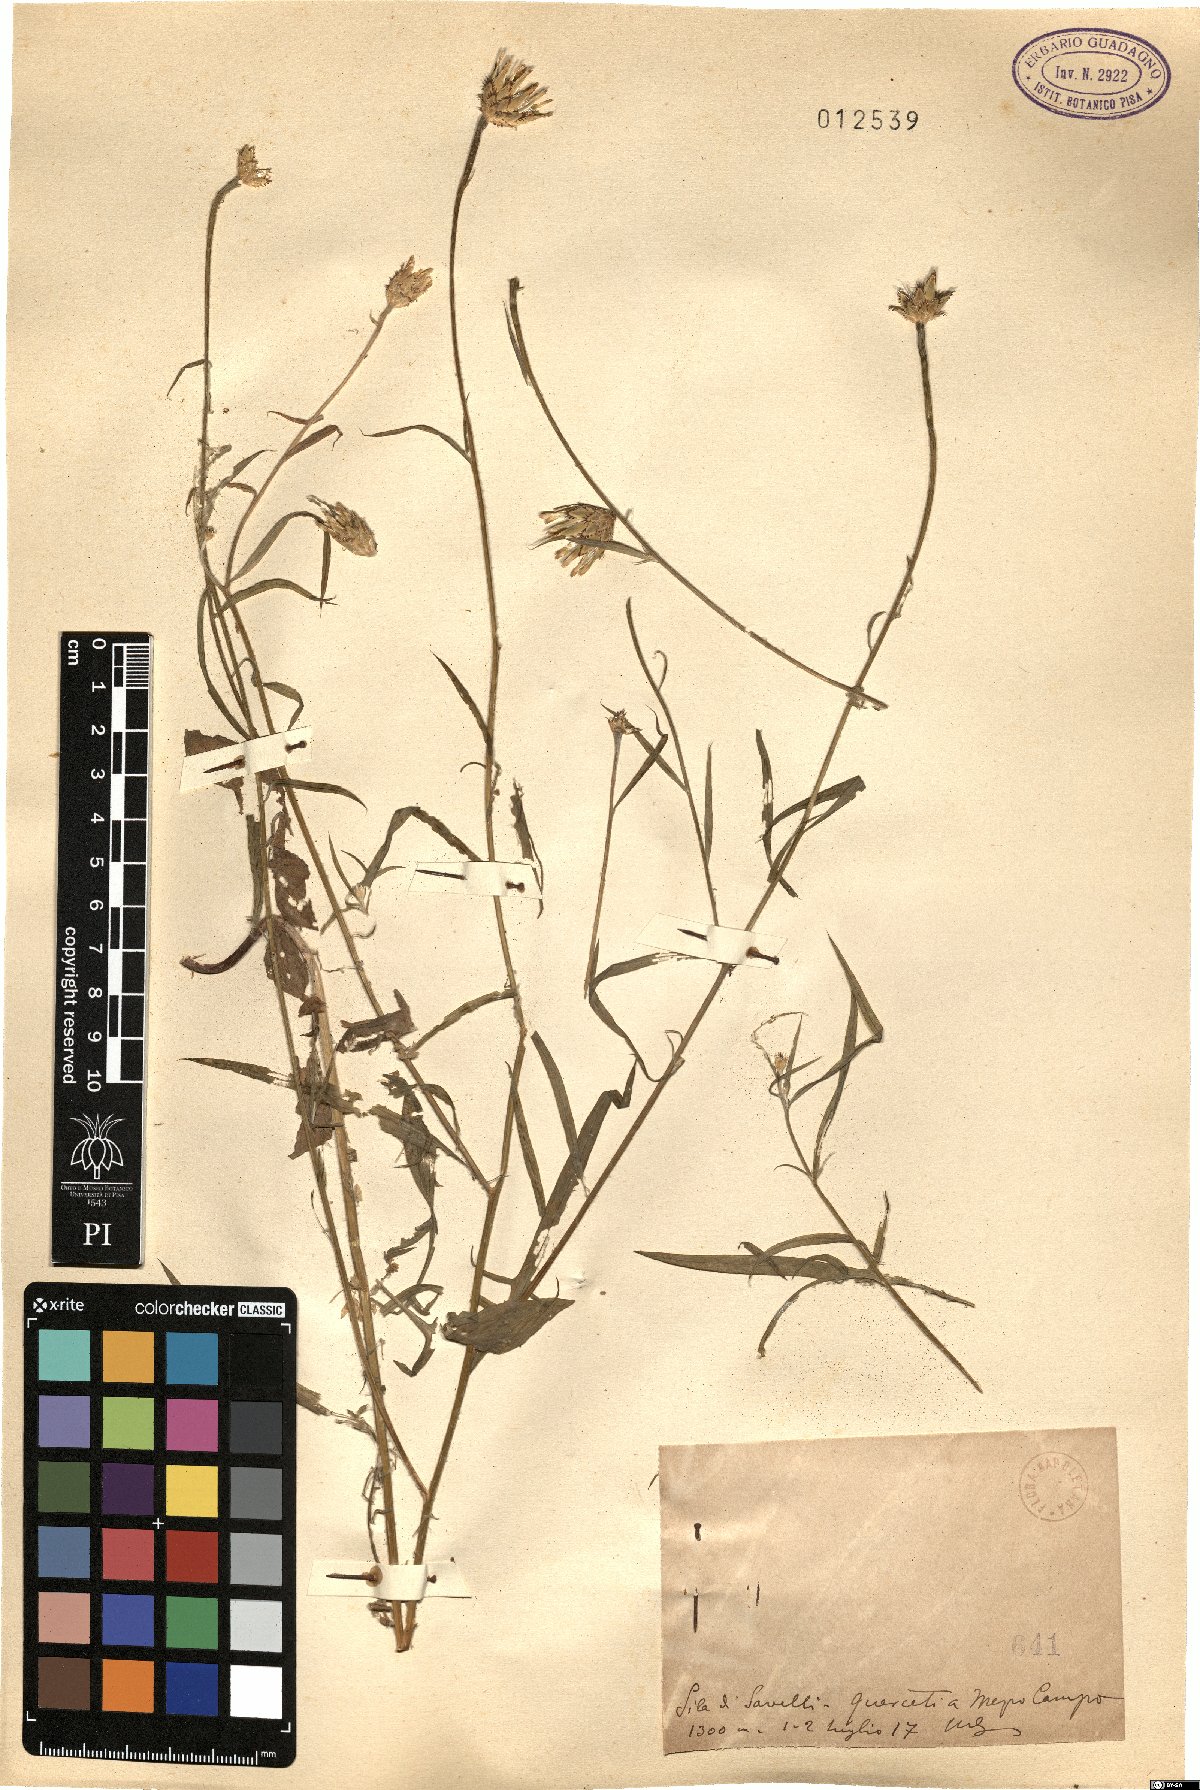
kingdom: Plantae
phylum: Tracheophyta
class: Magnoliopsida
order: Asterales
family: Asteraceae
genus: Centaurea
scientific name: Centaurea
